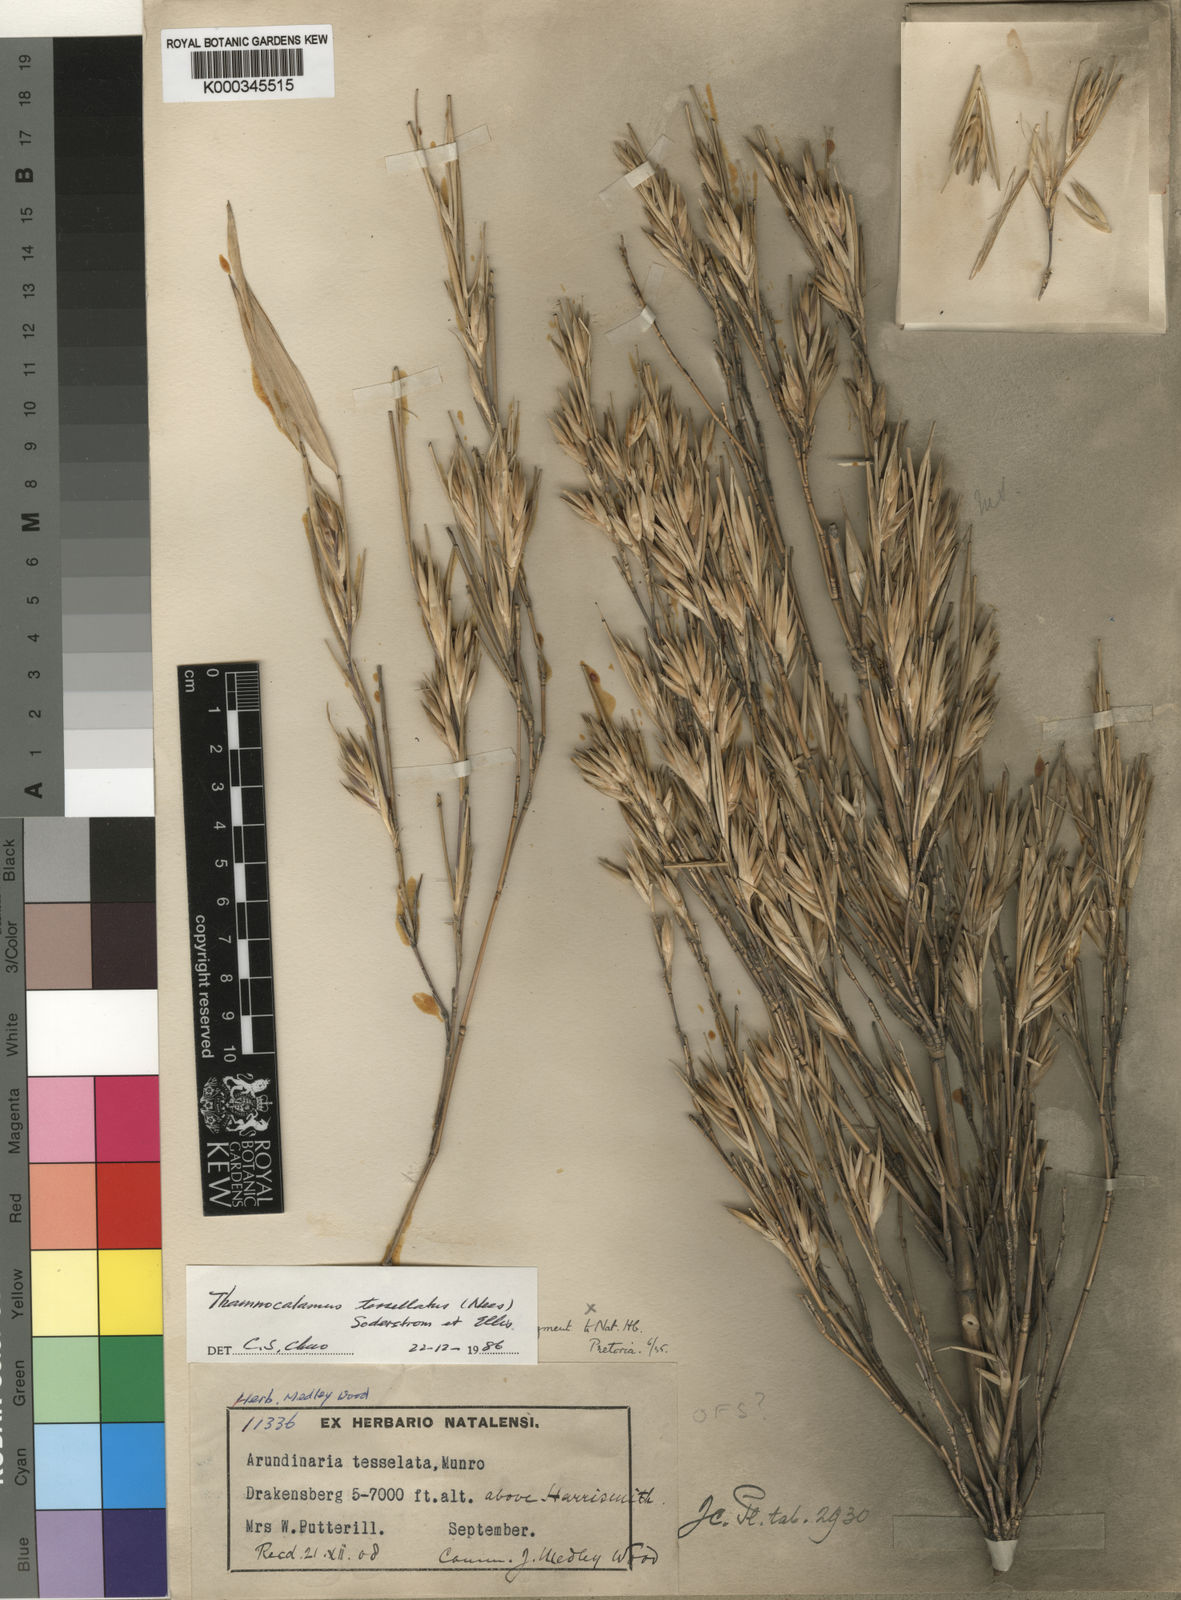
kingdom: Plantae
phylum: Tracheophyta
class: Liliopsida
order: Poales
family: Poaceae
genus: Bergbambos
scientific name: Bergbambos tessellata
